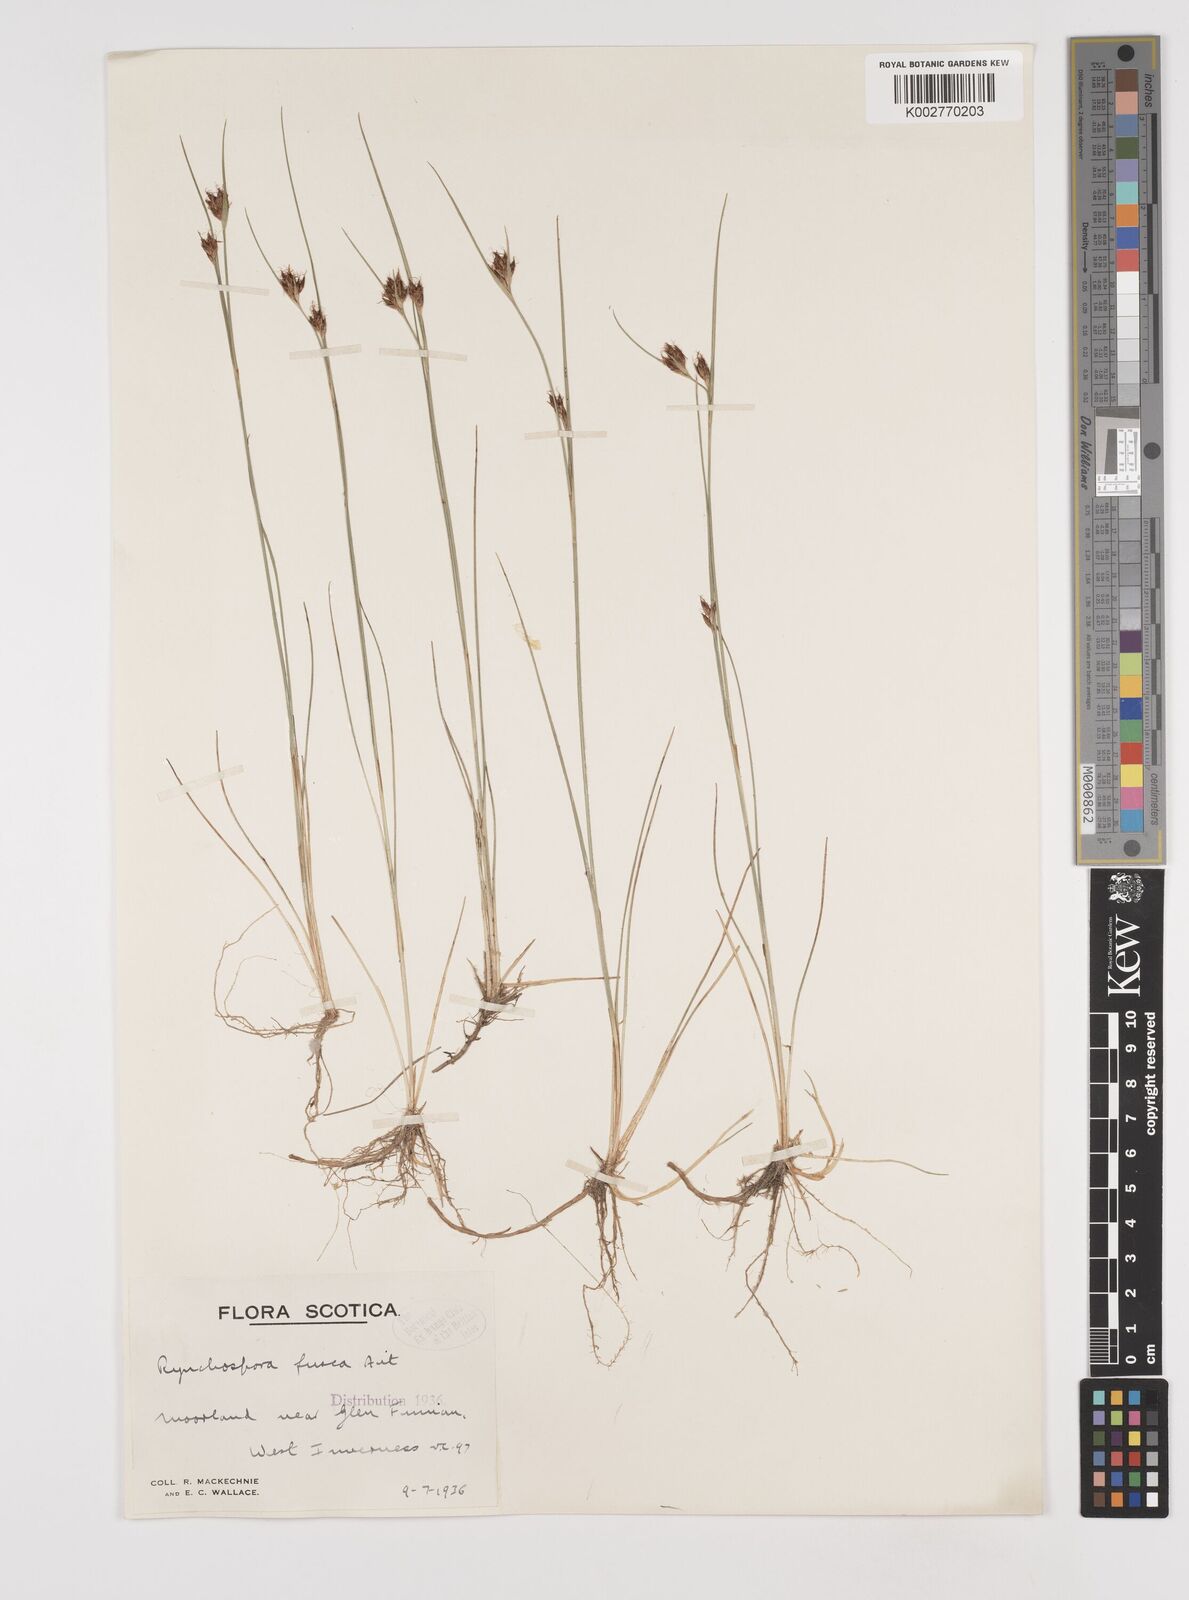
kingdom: Plantae
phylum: Tracheophyta
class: Liliopsida
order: Poales
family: Cyperaceae
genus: Rhynchospora
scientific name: Rhynchospora fusca
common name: Brown beak-sedge
